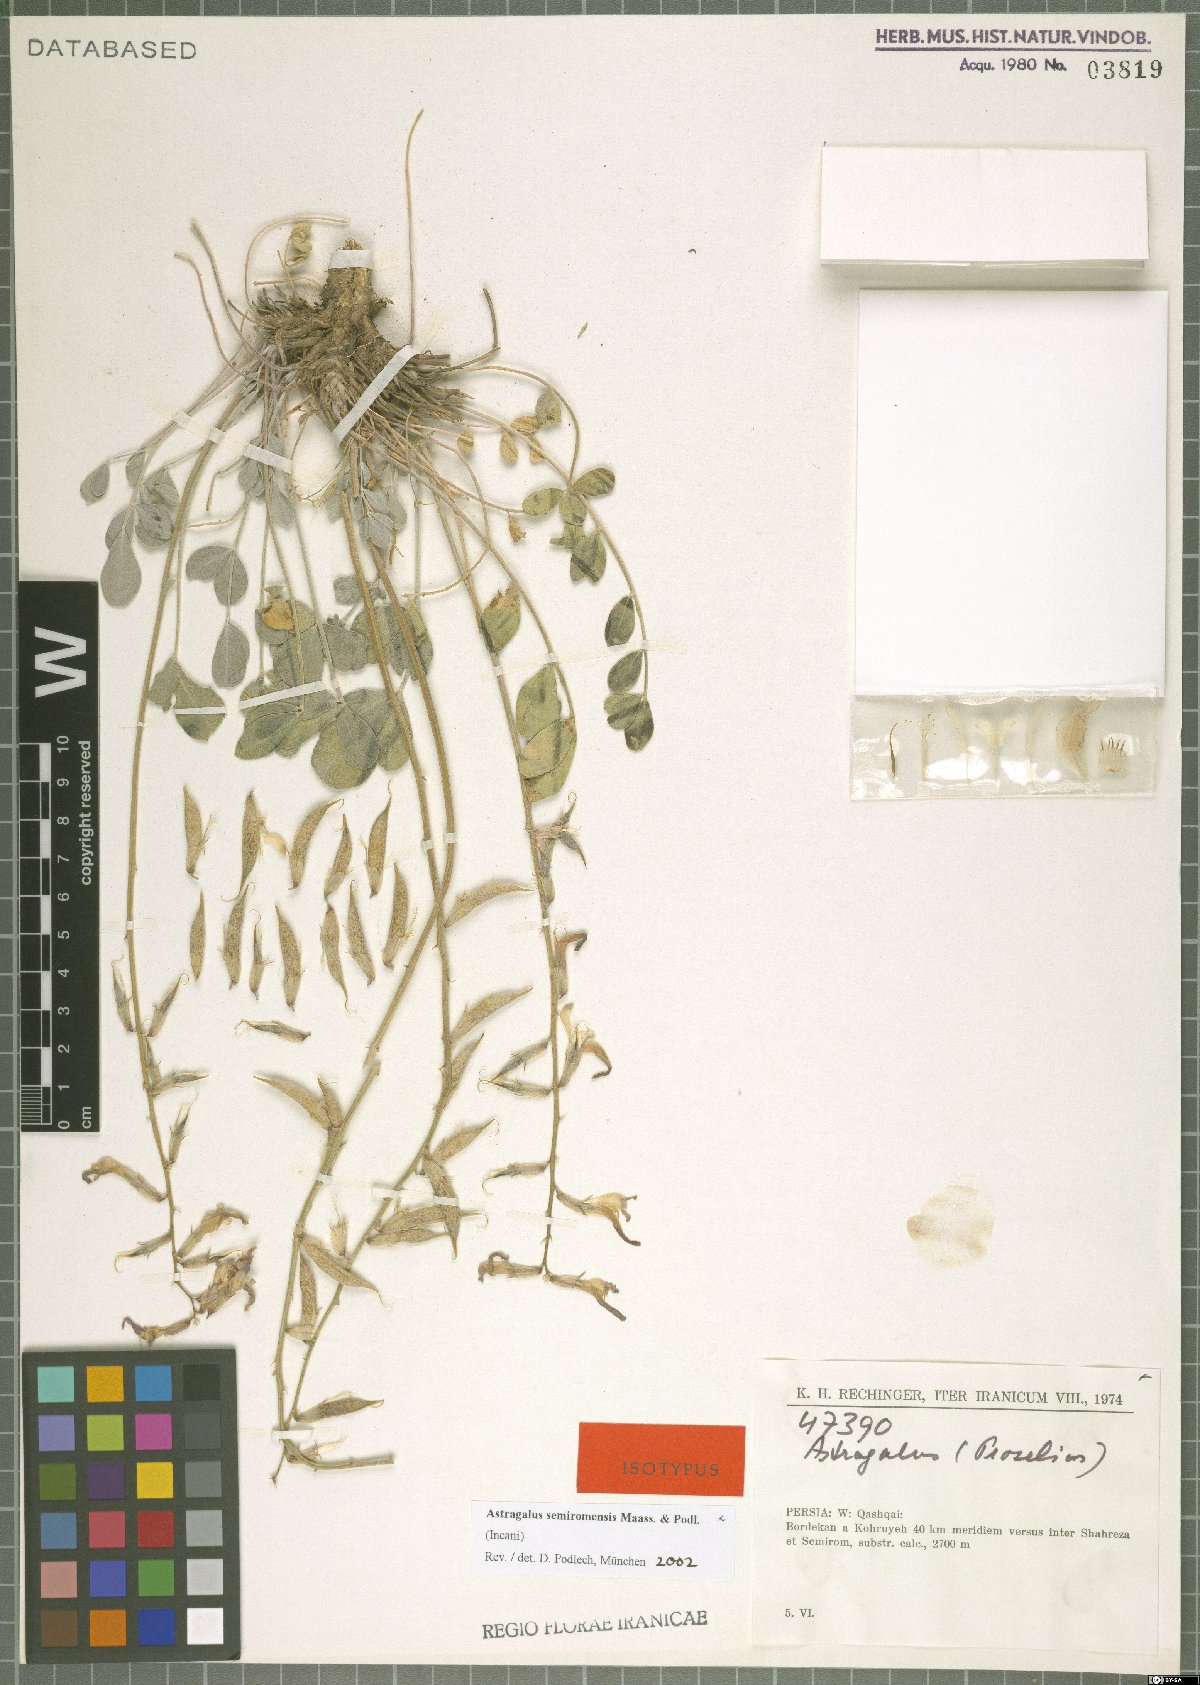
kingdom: Plantae
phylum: Tracheophyta
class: Magnoliopsida
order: Fabales
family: Fabaceae
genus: Astragalus
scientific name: Astragalus semiromensis
